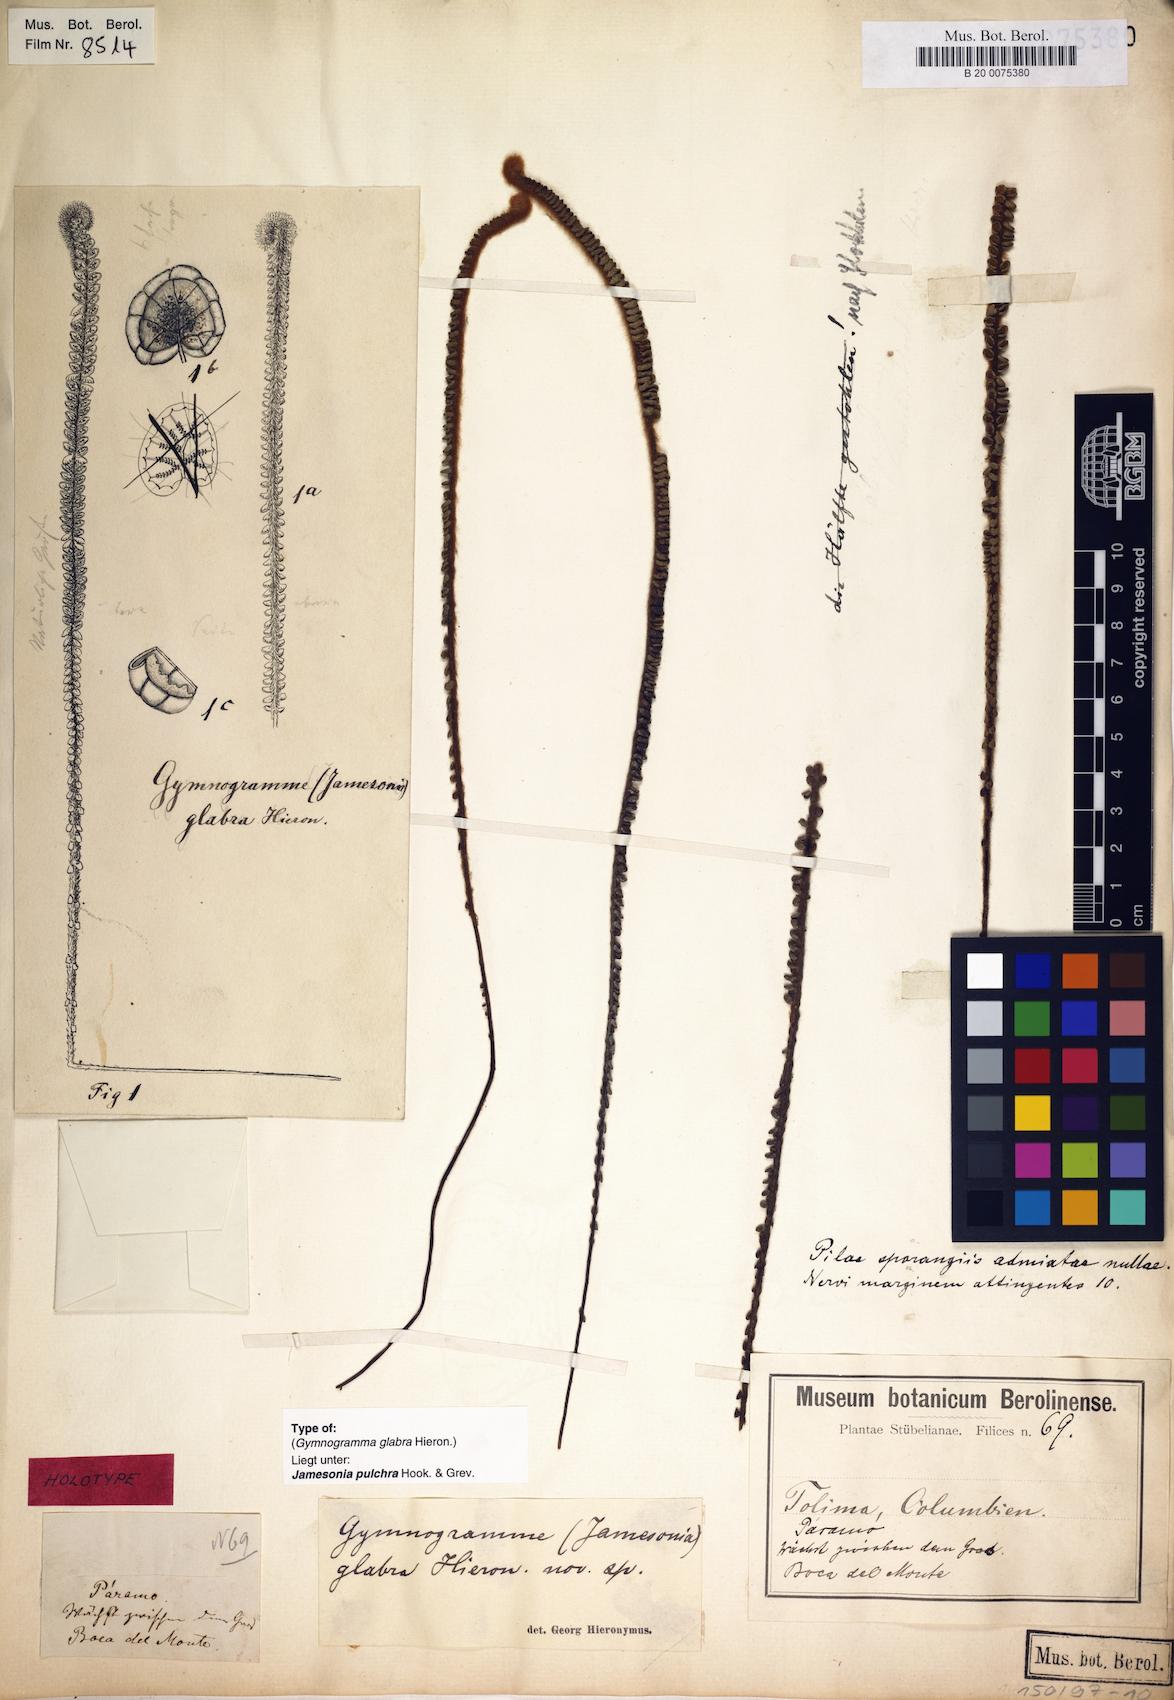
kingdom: Plantae
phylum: Tracheophyta
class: Polypodiopsida
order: Polypodiales
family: Pteridaceae
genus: Jamesonia
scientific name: Jamesonia pulchra
